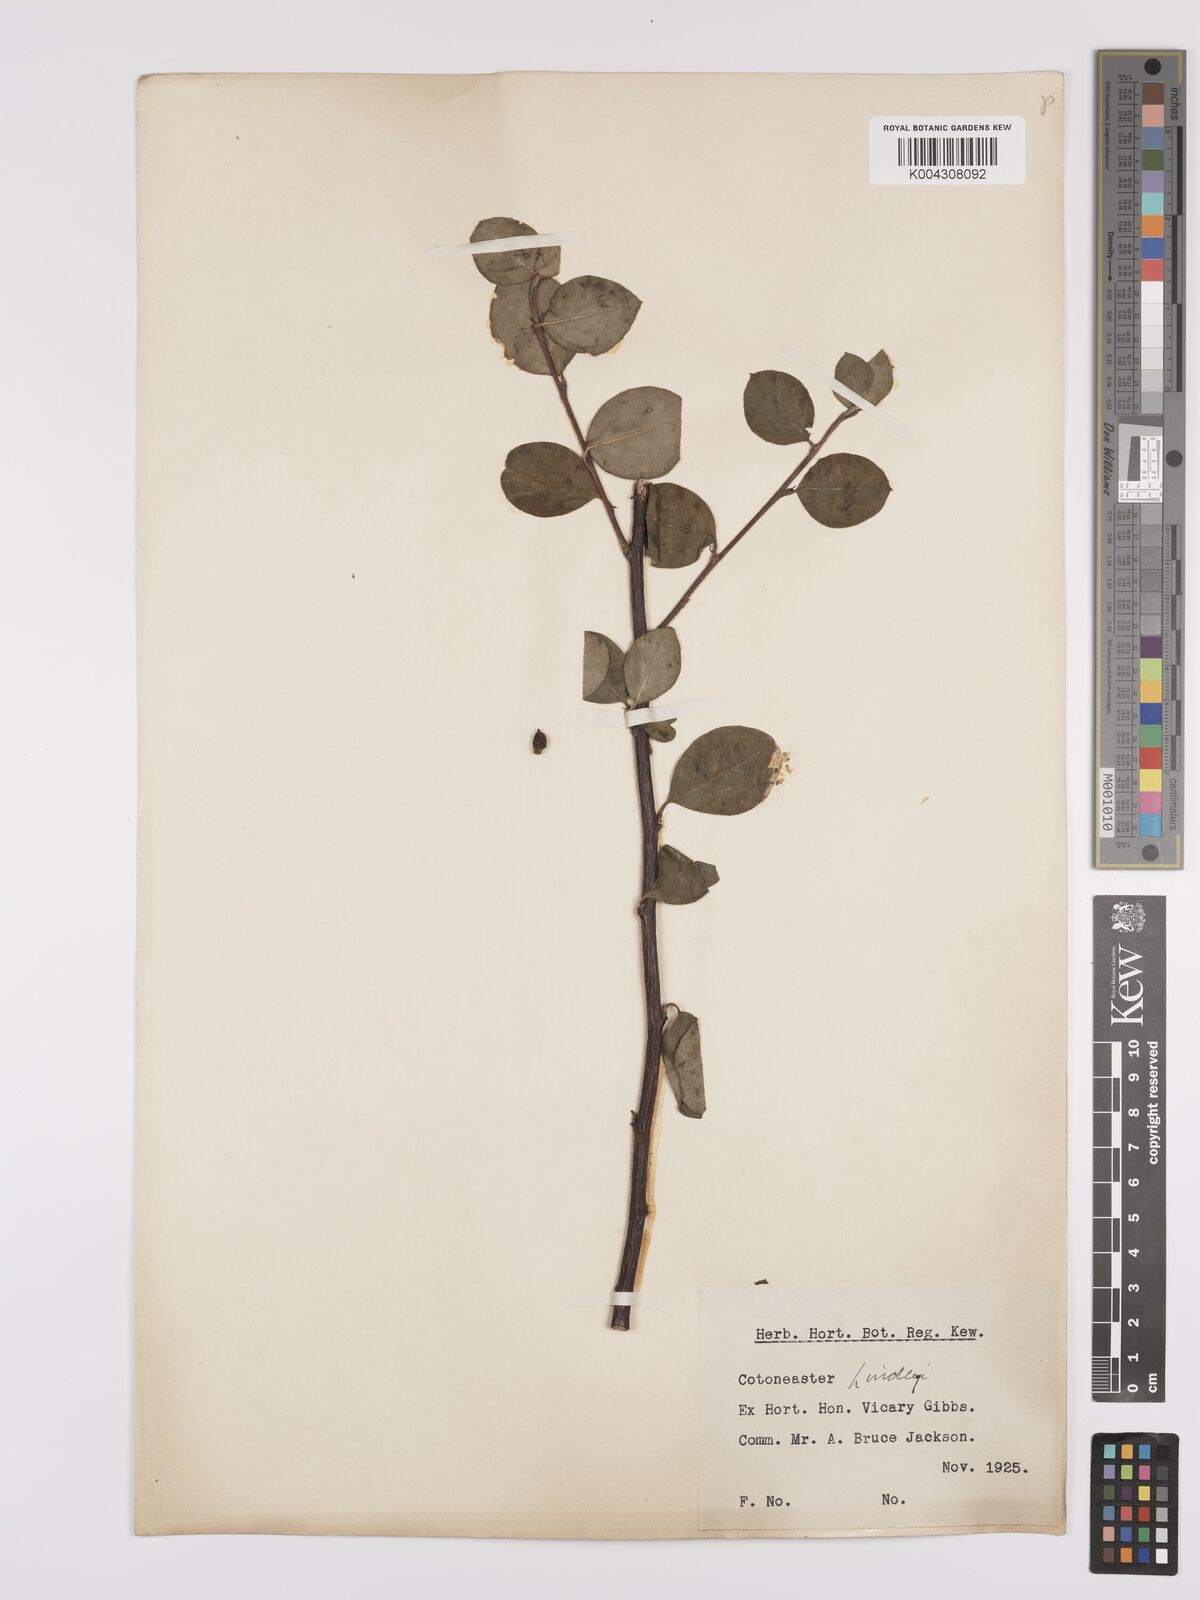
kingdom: Plantae
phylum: Tracheophyta
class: Magnoliopsida
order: Rosales
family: Rosaceae
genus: Cotoneaster
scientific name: Cotoneaster lindleyi
